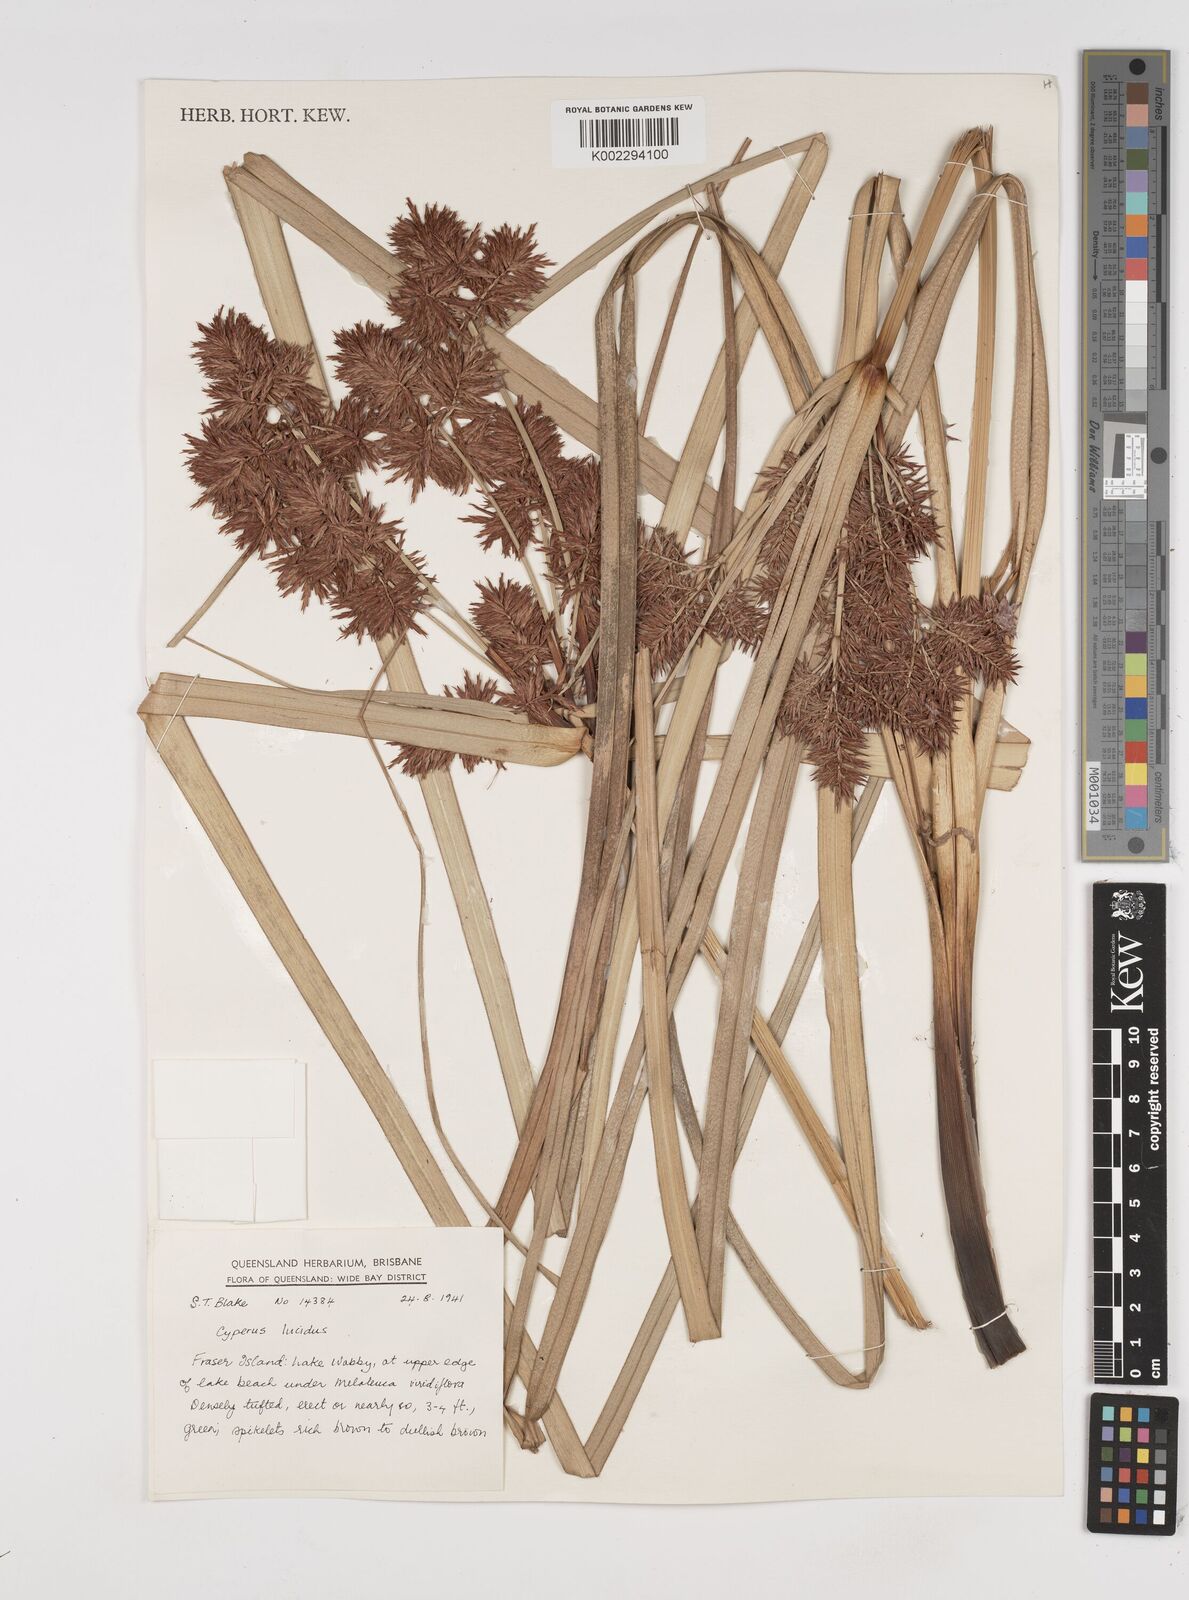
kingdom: Plantae
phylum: Tracheophyta
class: Liliopsida
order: Poales
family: Cyperaceae
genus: Cyperus
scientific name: Cyperus lucidus
